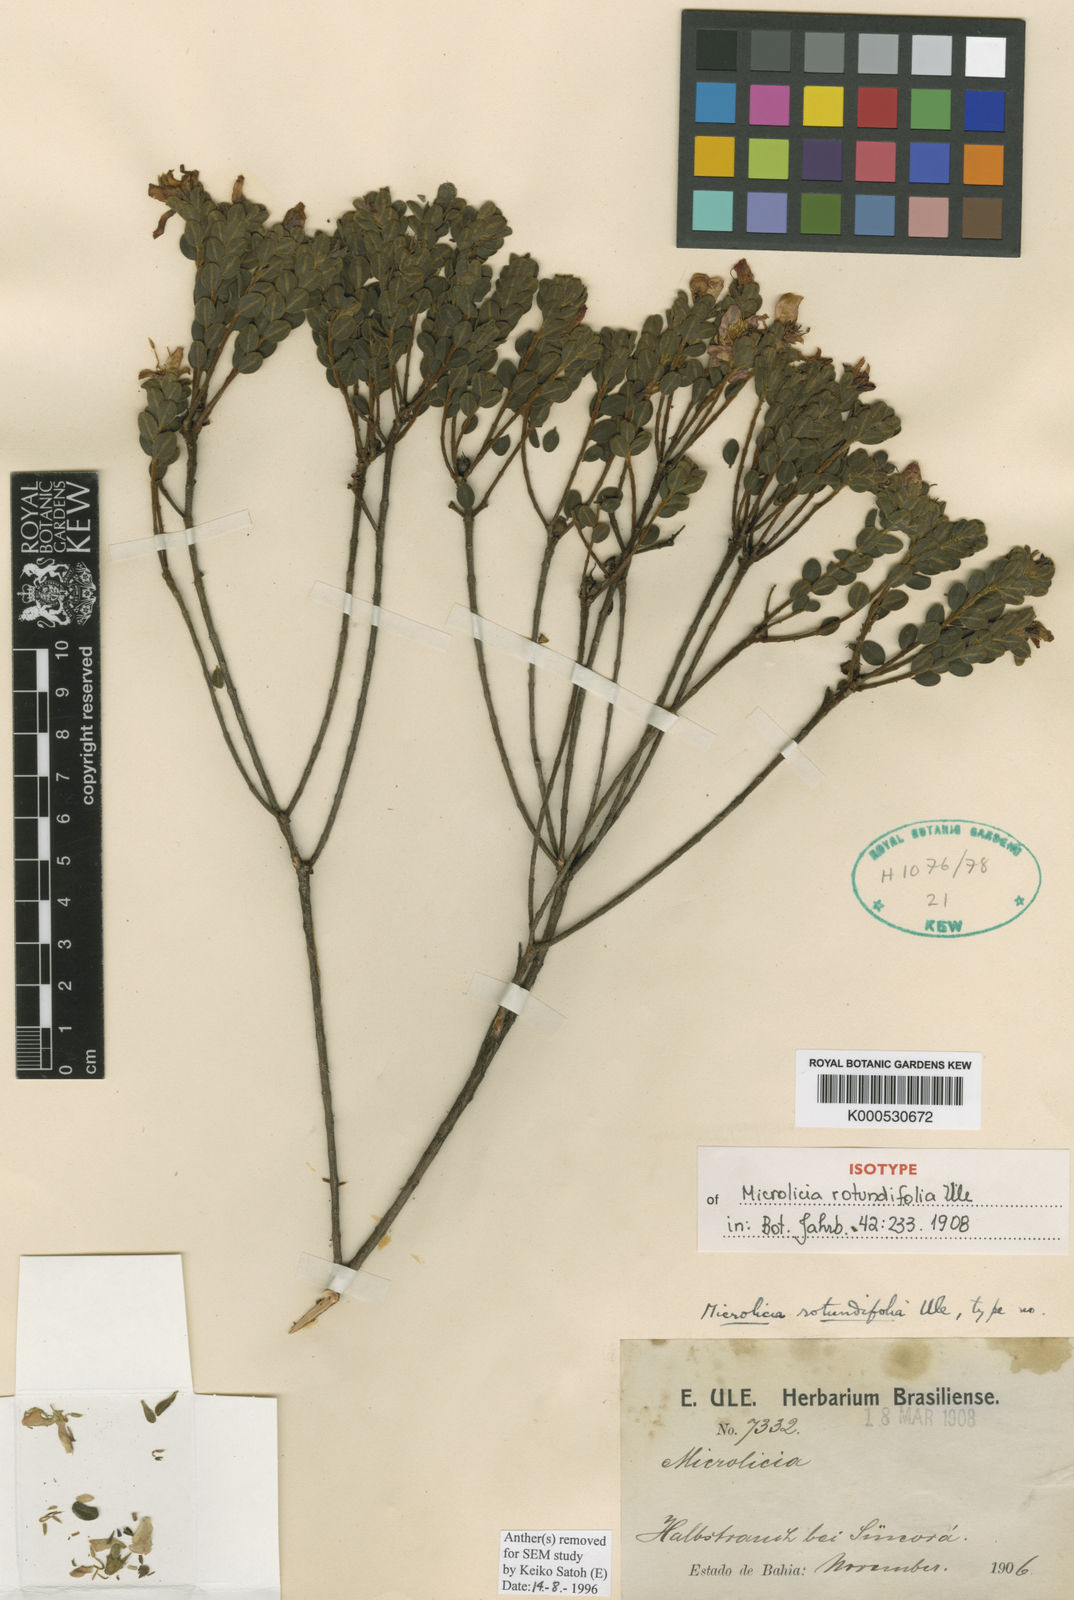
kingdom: Plantae
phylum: Tracheophyta
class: Magnoliopsida
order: Myrtales
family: Melastomataceae
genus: Microlicia
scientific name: Microlicia rotundifolia
